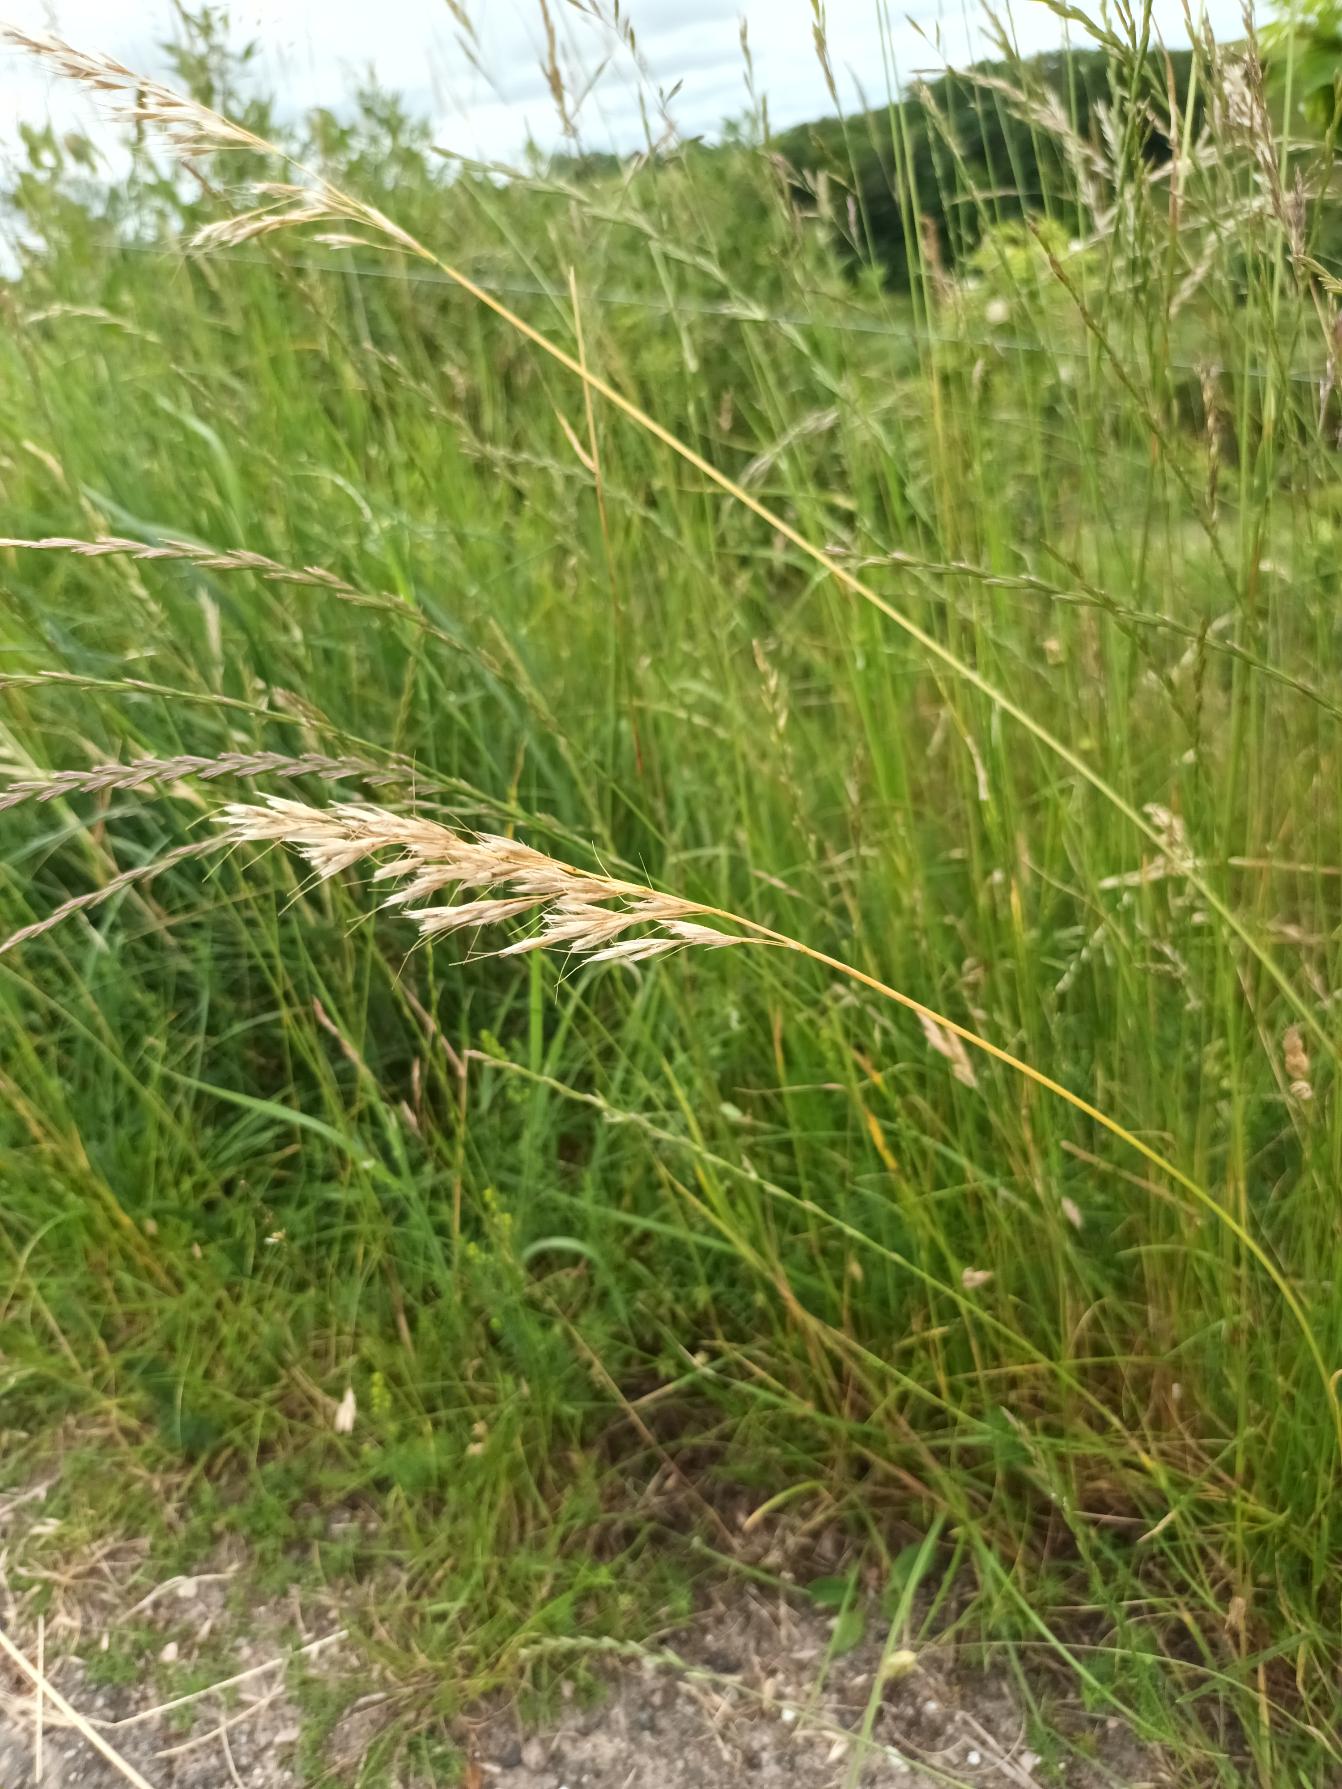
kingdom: Plantae
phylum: Tracheophyta
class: Liliopsida
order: Poales
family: Poaceae
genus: Avenula
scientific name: Avenula pubescens
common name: Dunet havre
